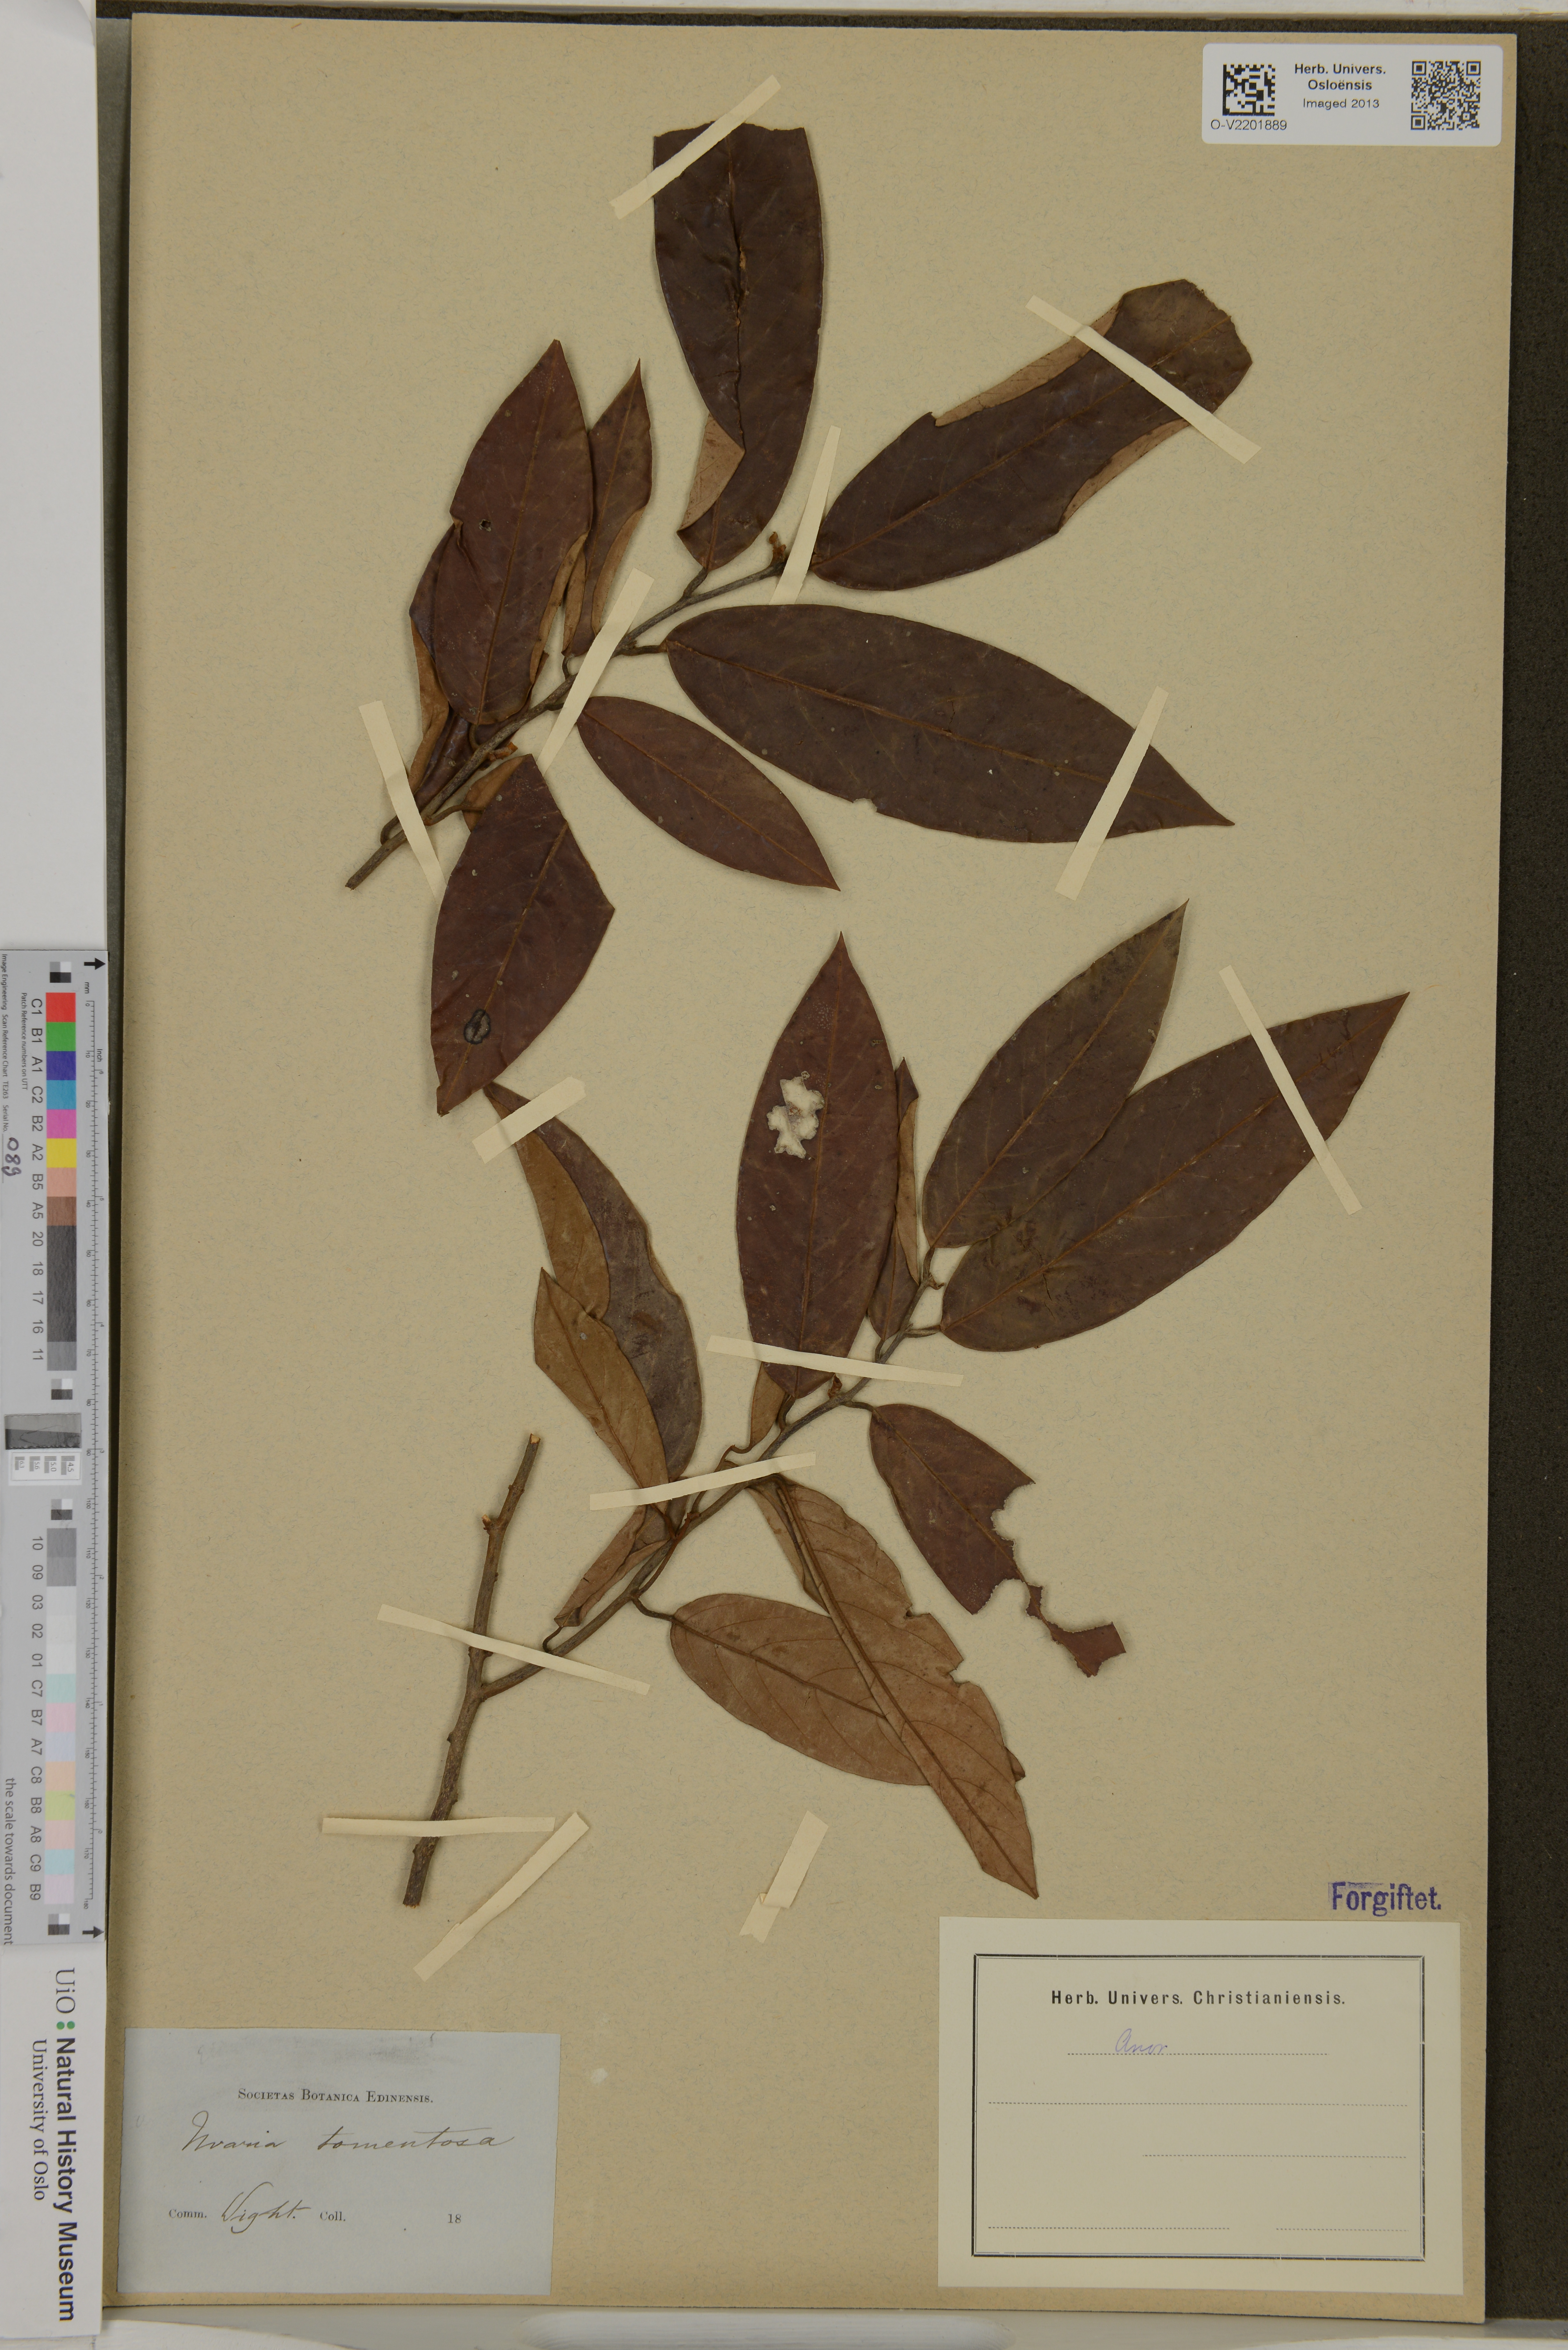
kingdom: Plantae
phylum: Tracheophyta
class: Magnoliopsida
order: Magnoliales
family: Annonaceae
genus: Uvaria
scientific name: Uvaria tomentosa
